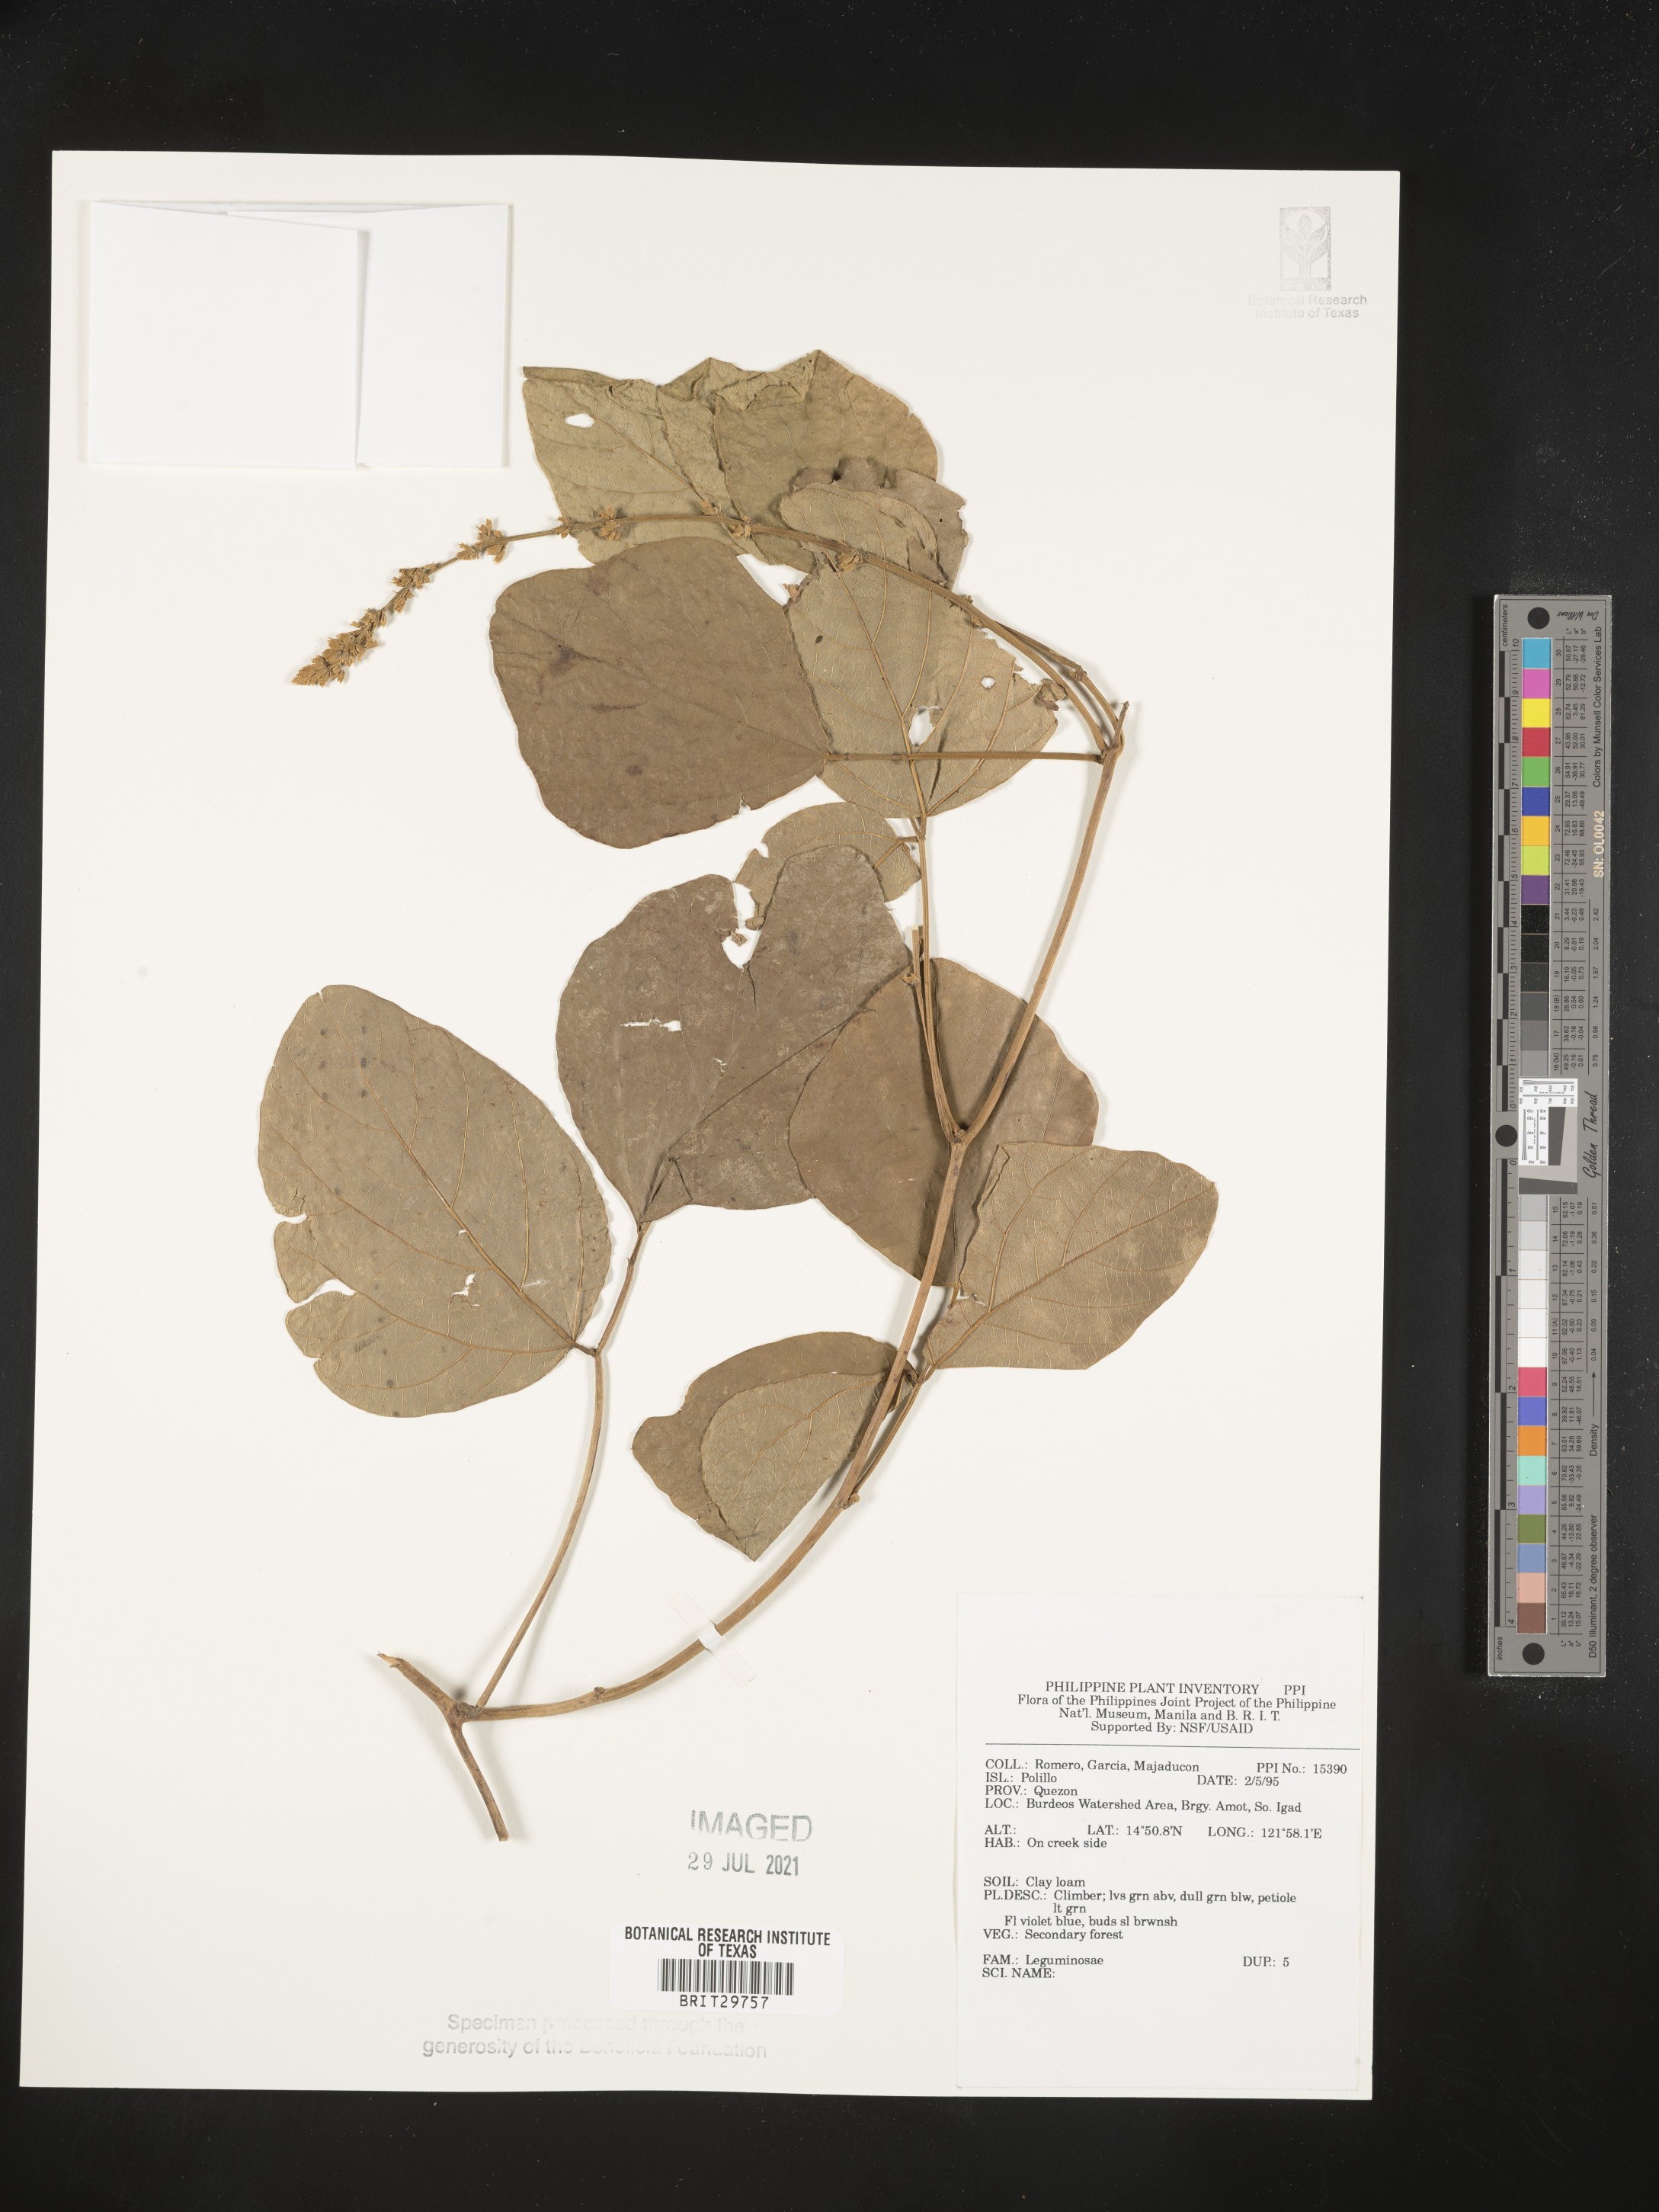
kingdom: Plantae
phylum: Tracheophyta
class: Magnoliopsida
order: Fabales
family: Fabaceae
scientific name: Fabaceae
